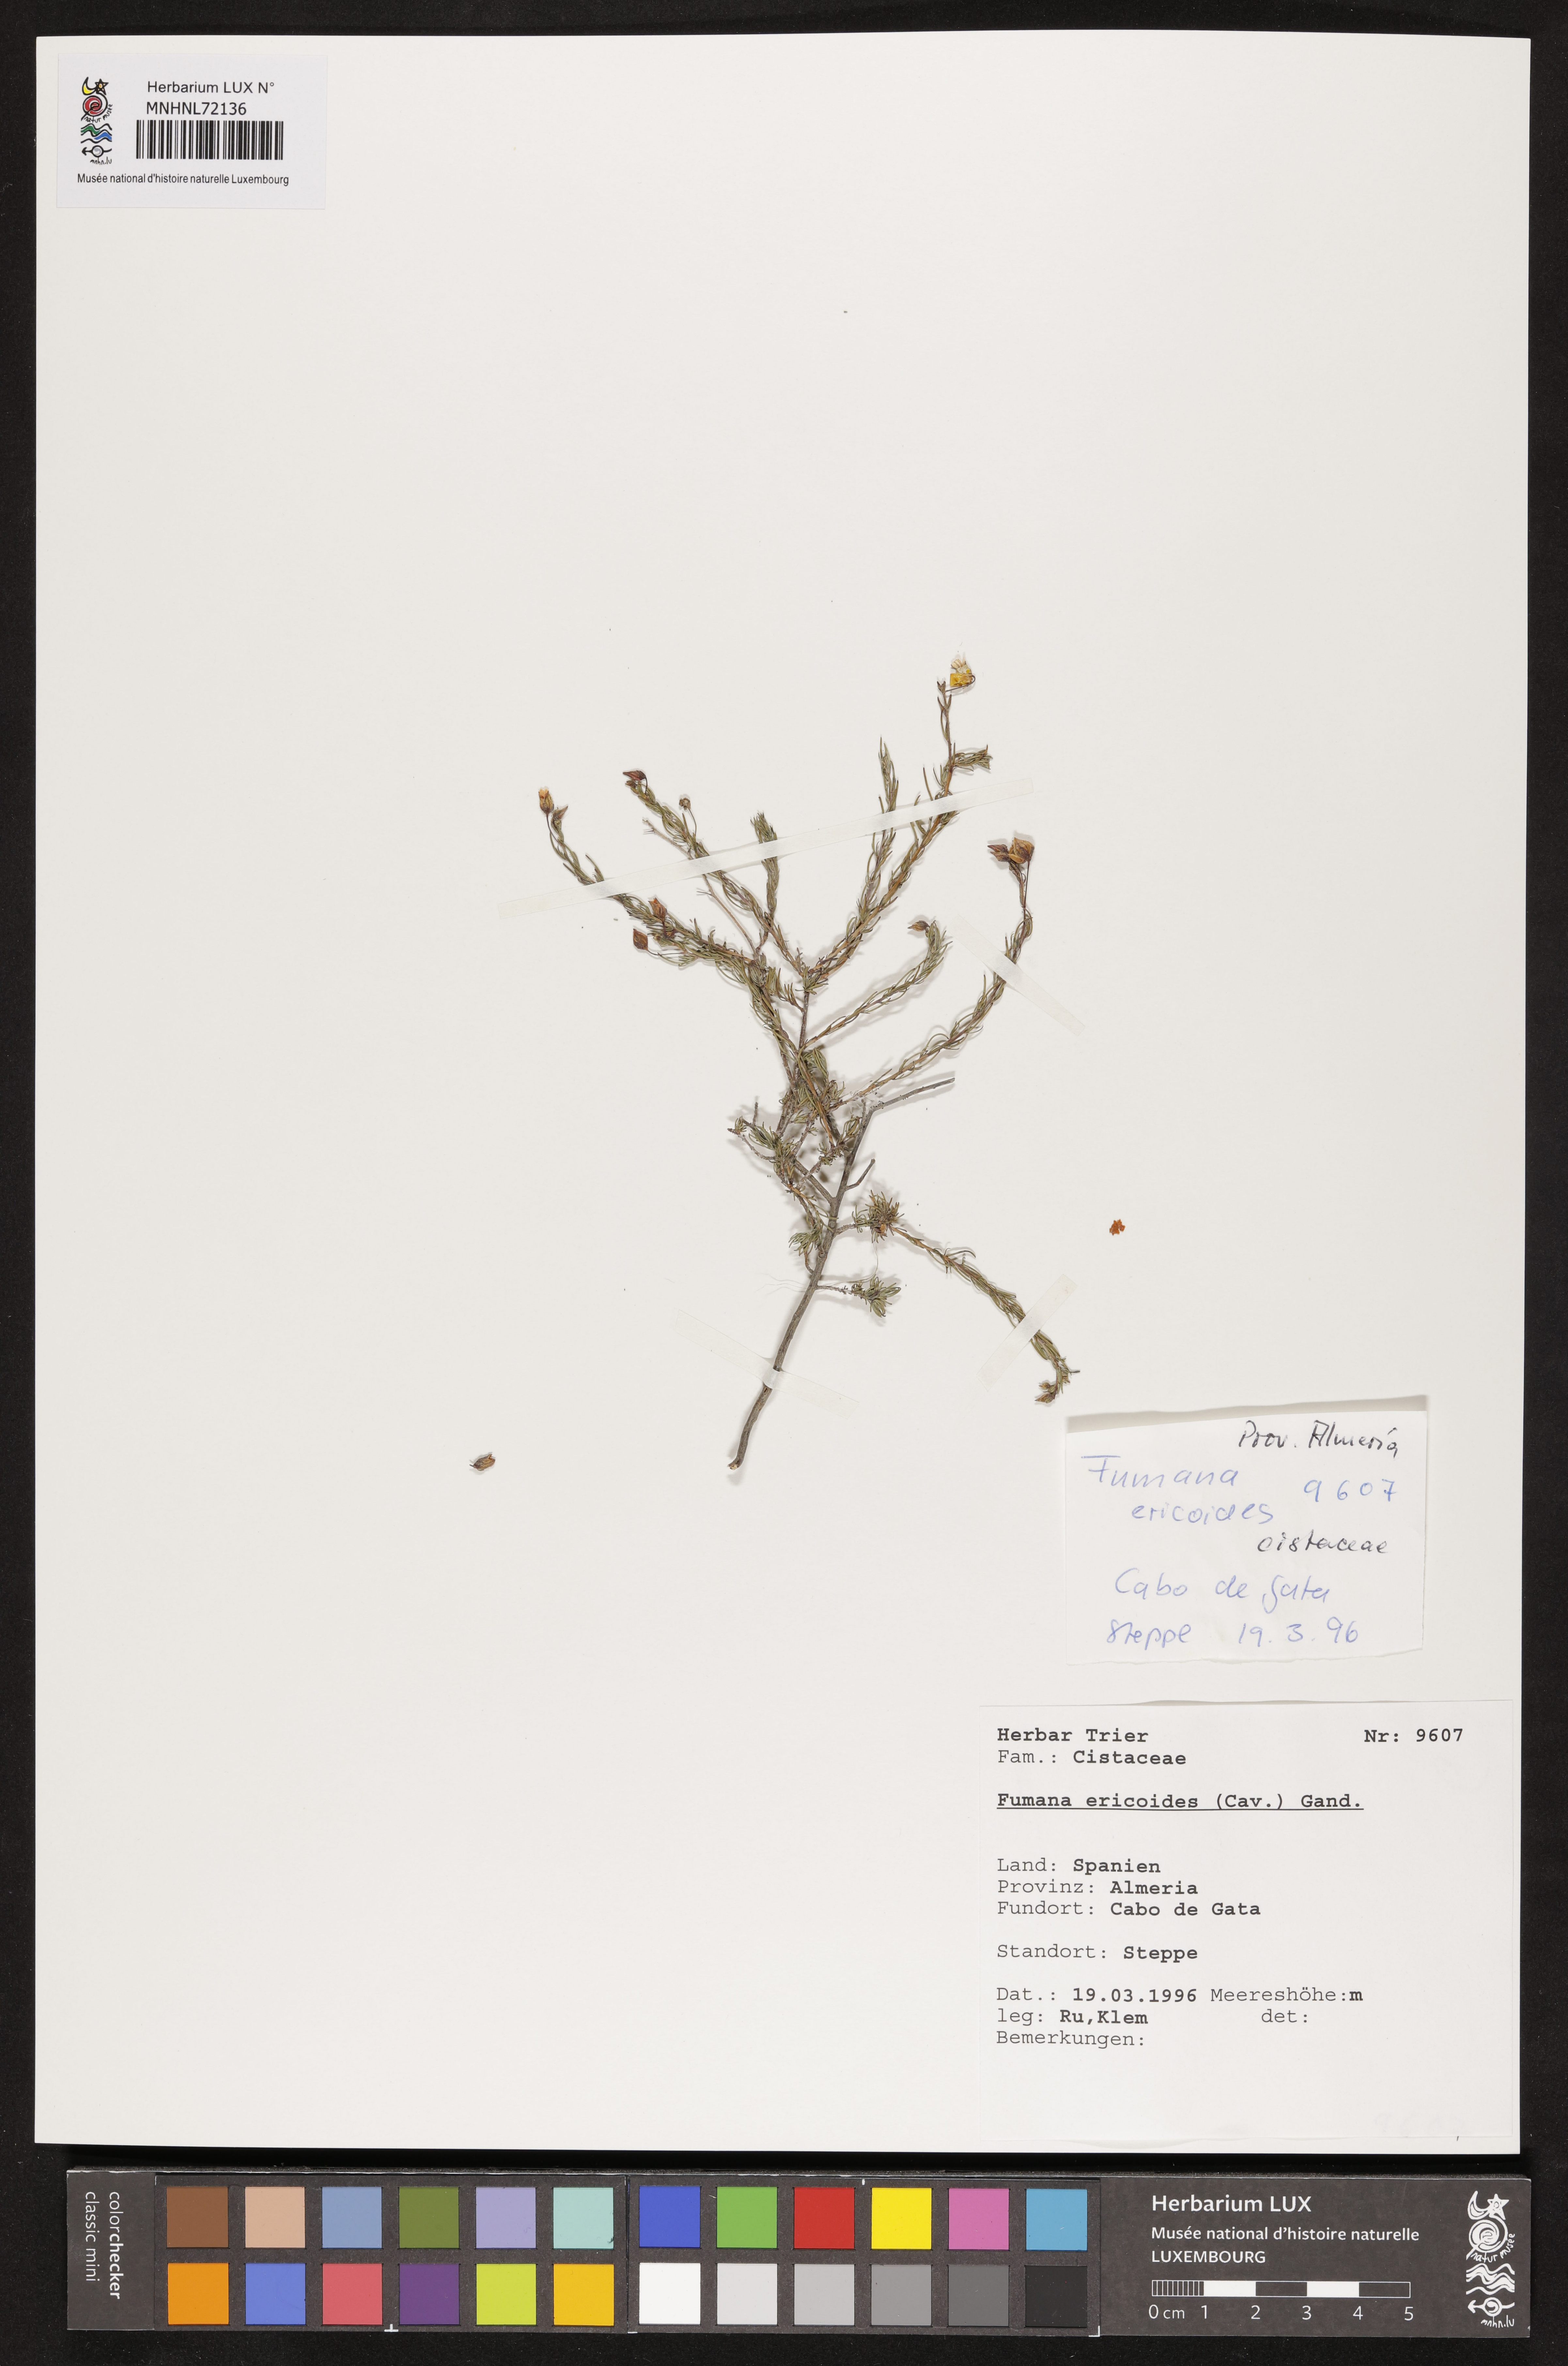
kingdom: Plantae
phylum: Tracheophyta
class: Magnoliopsida
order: Malvales
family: Cistaceae
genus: Fumana
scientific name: Fumana ericoides
